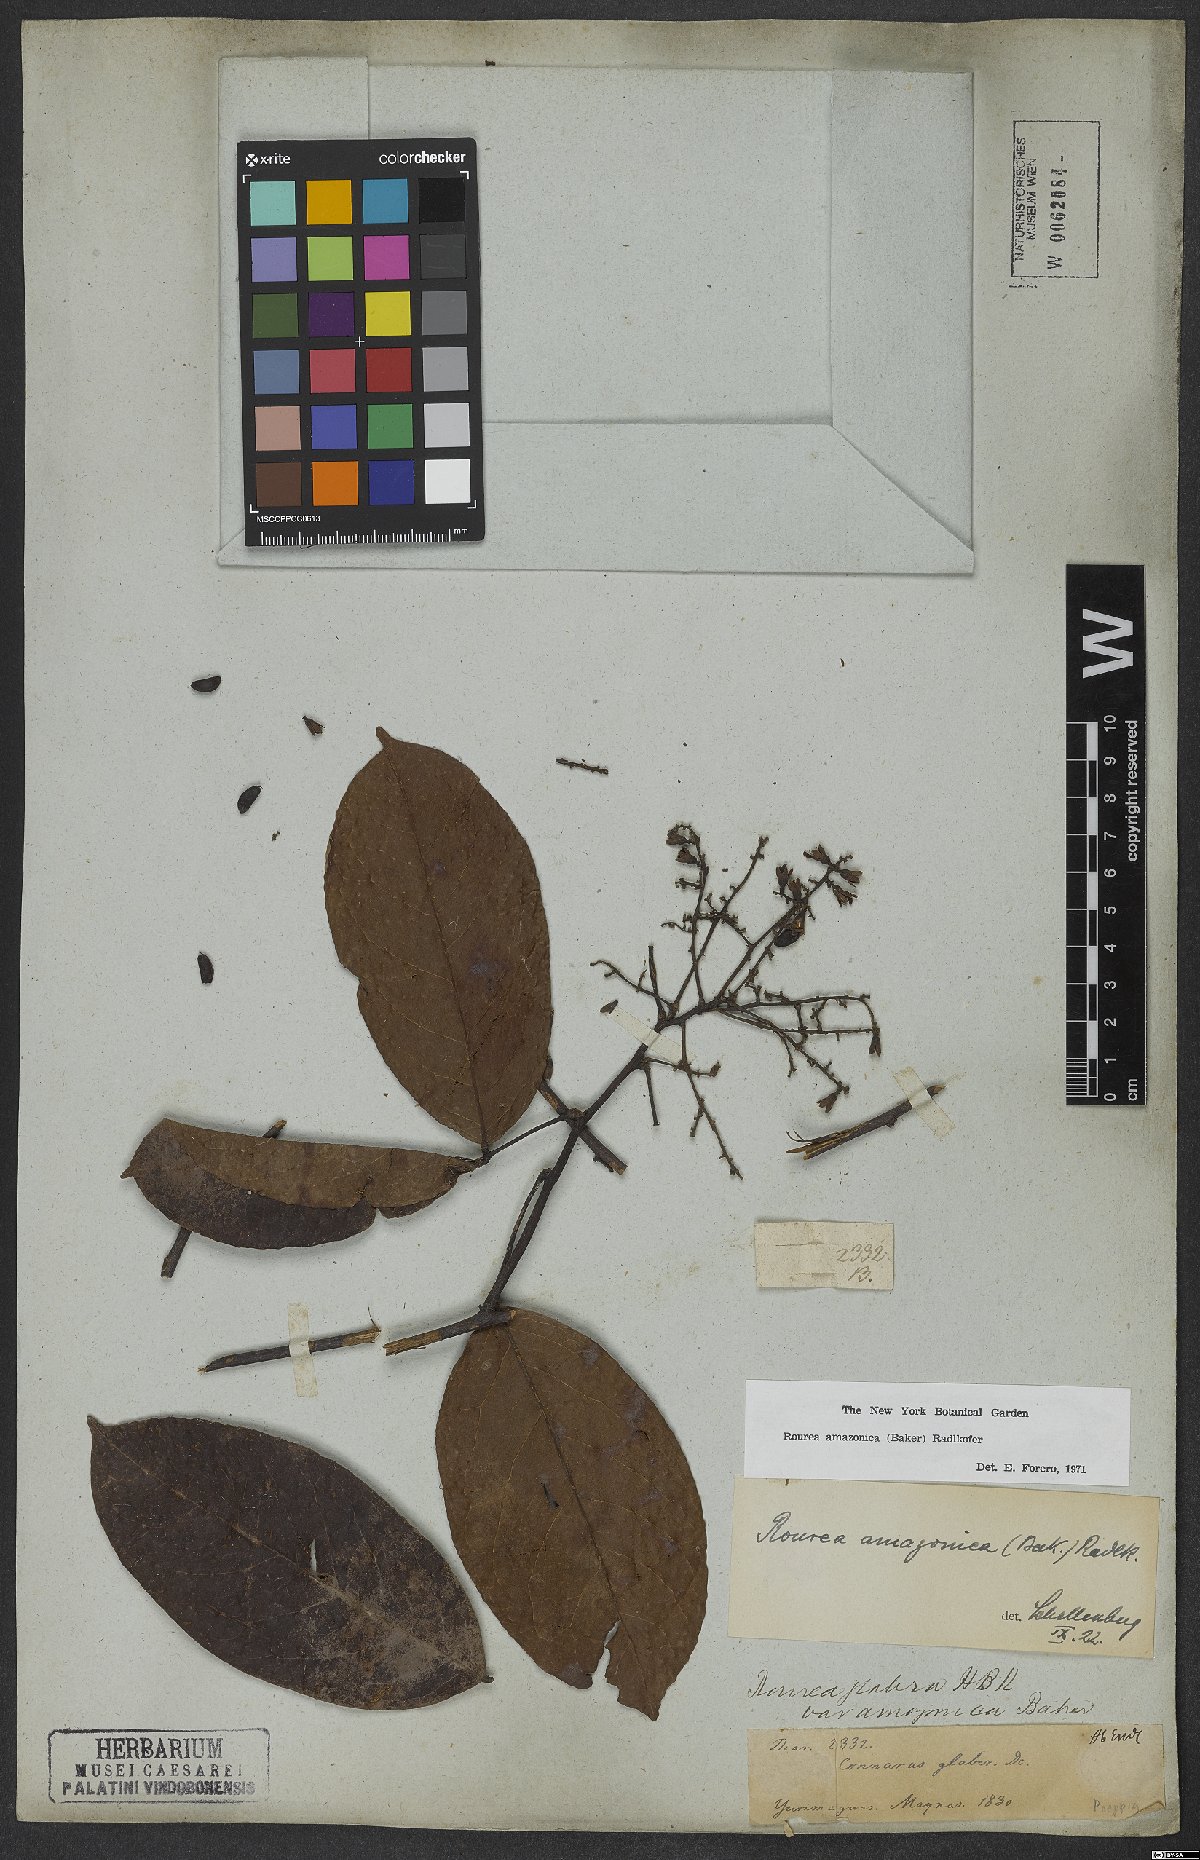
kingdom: Plantae
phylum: Tracheophyta
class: Magnoliopsida
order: Oxalidales
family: Connaraceae
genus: Rourea
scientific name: Rourea amazonica
